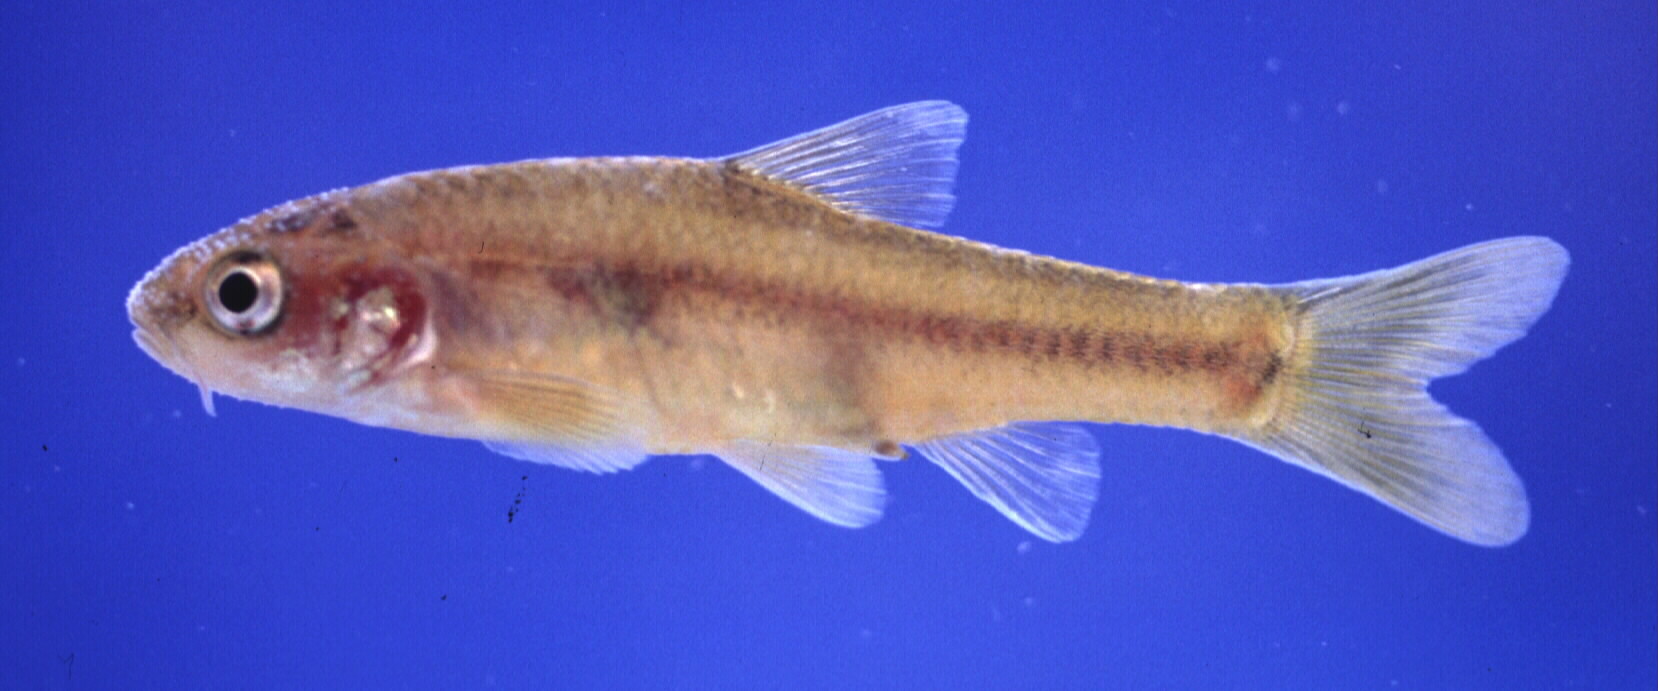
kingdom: Animalia
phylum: Chordata
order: Cypriniformes
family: Cyprinidae
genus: Enteromius
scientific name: Enteromius motebensis
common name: Marico barb
